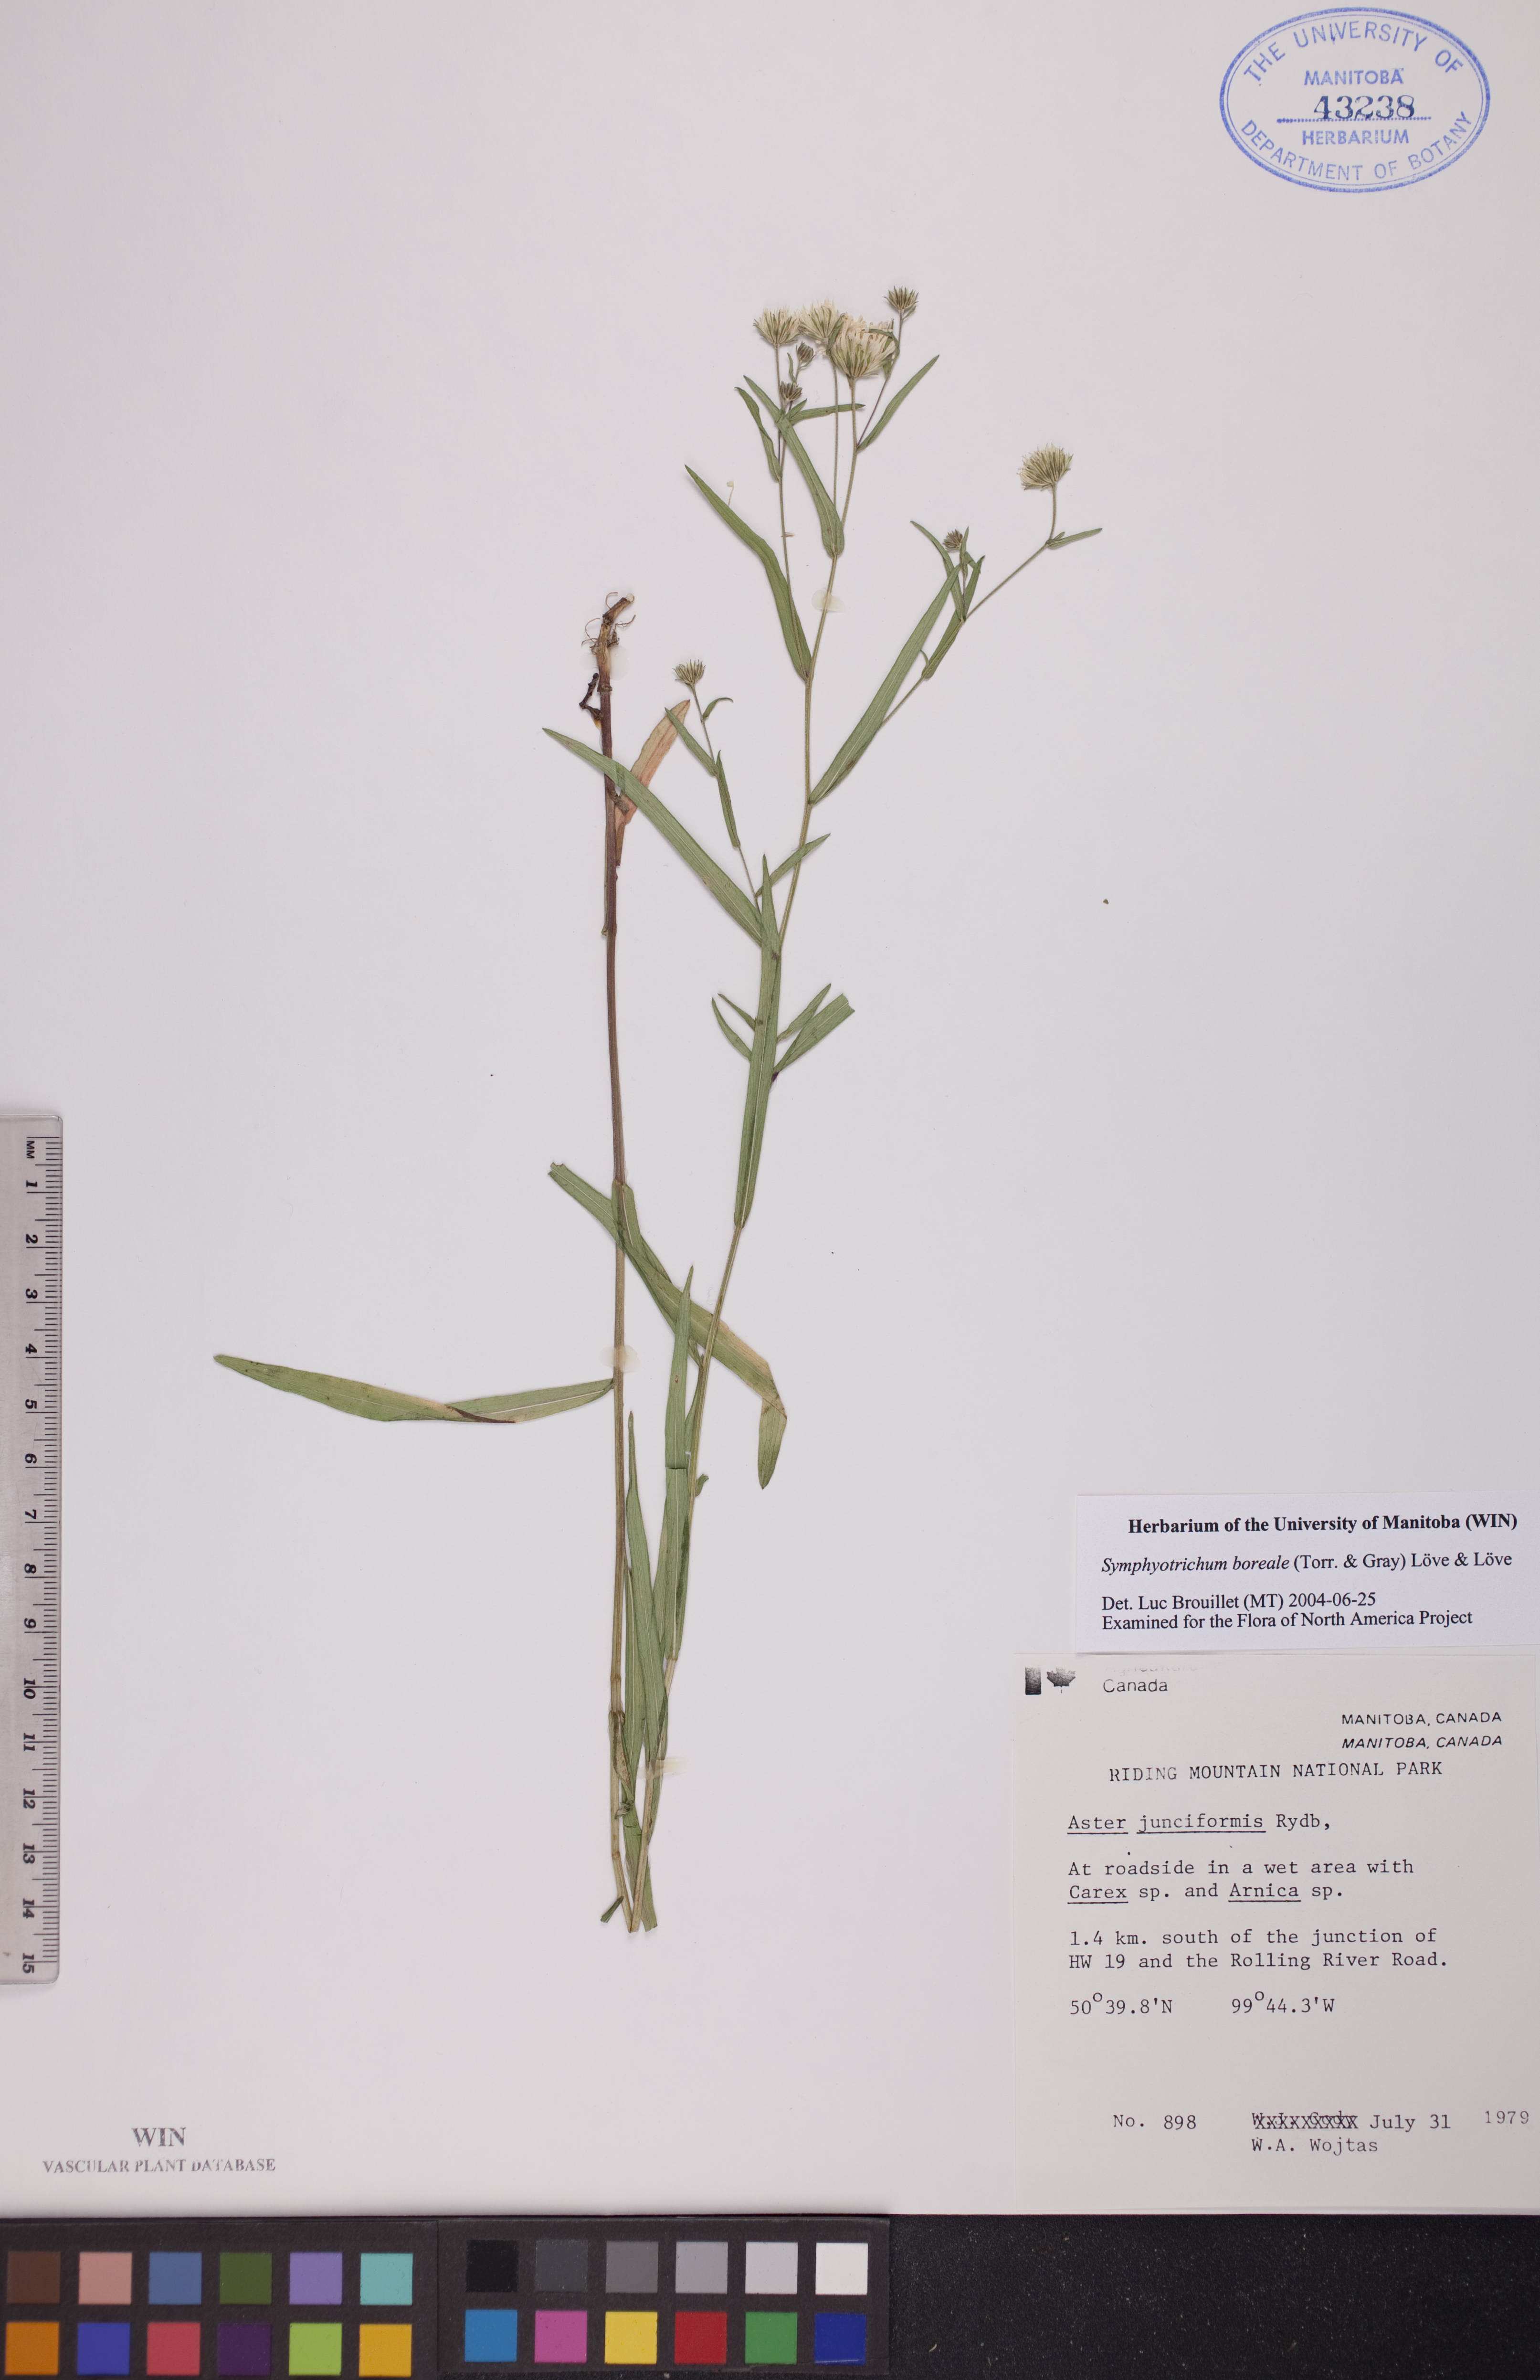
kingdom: Plantae
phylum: Tracheophyta
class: Magnoliopsida
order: Asterales
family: Asteraceae
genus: Symphyotrichum
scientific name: Symphyotrichum boreale
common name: Northern bog aster
